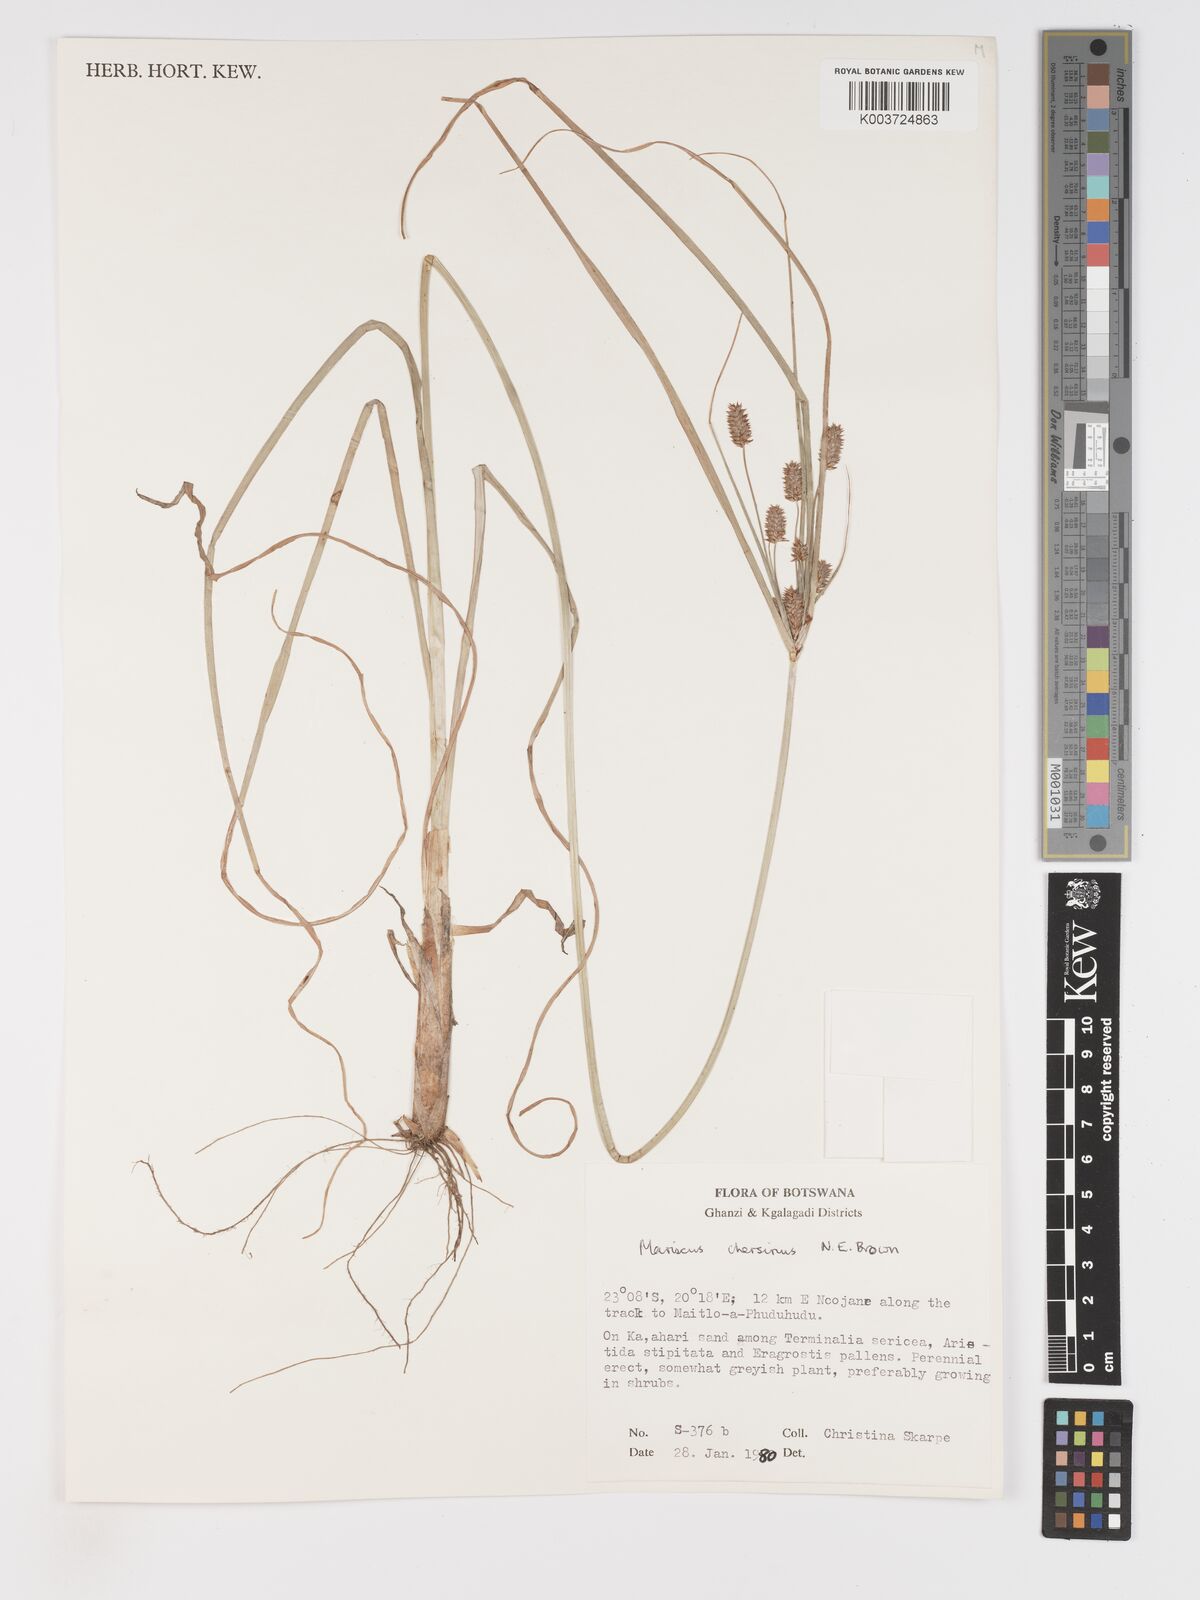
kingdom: Plantae
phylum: Tracheophyta
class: Liliopsida
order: Poales
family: Cyperaceae
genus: Cyperus
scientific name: Cyperus chersinus
